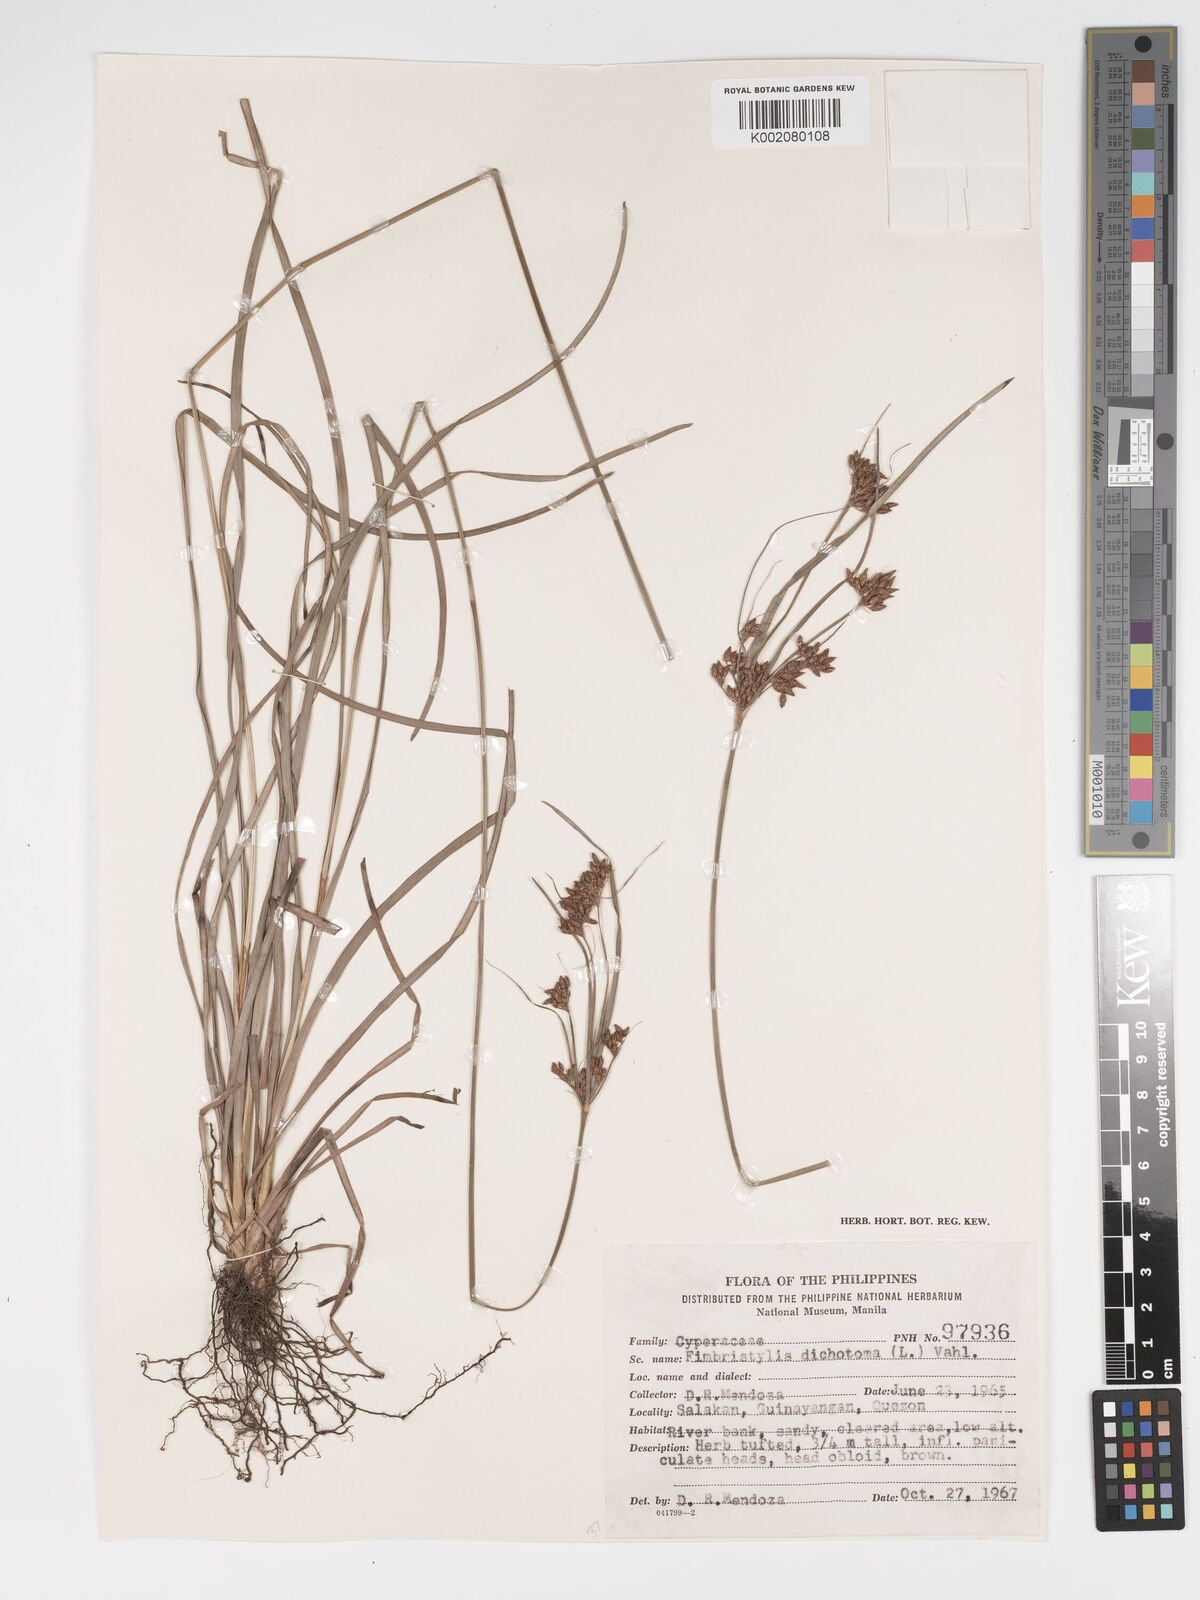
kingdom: Plantae
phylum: Tracheophyta
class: Liliopsida
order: Poales
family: Cyperaceae
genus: Fimbristylis
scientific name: Fimbristylis dichotoma
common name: Forked fimbry
